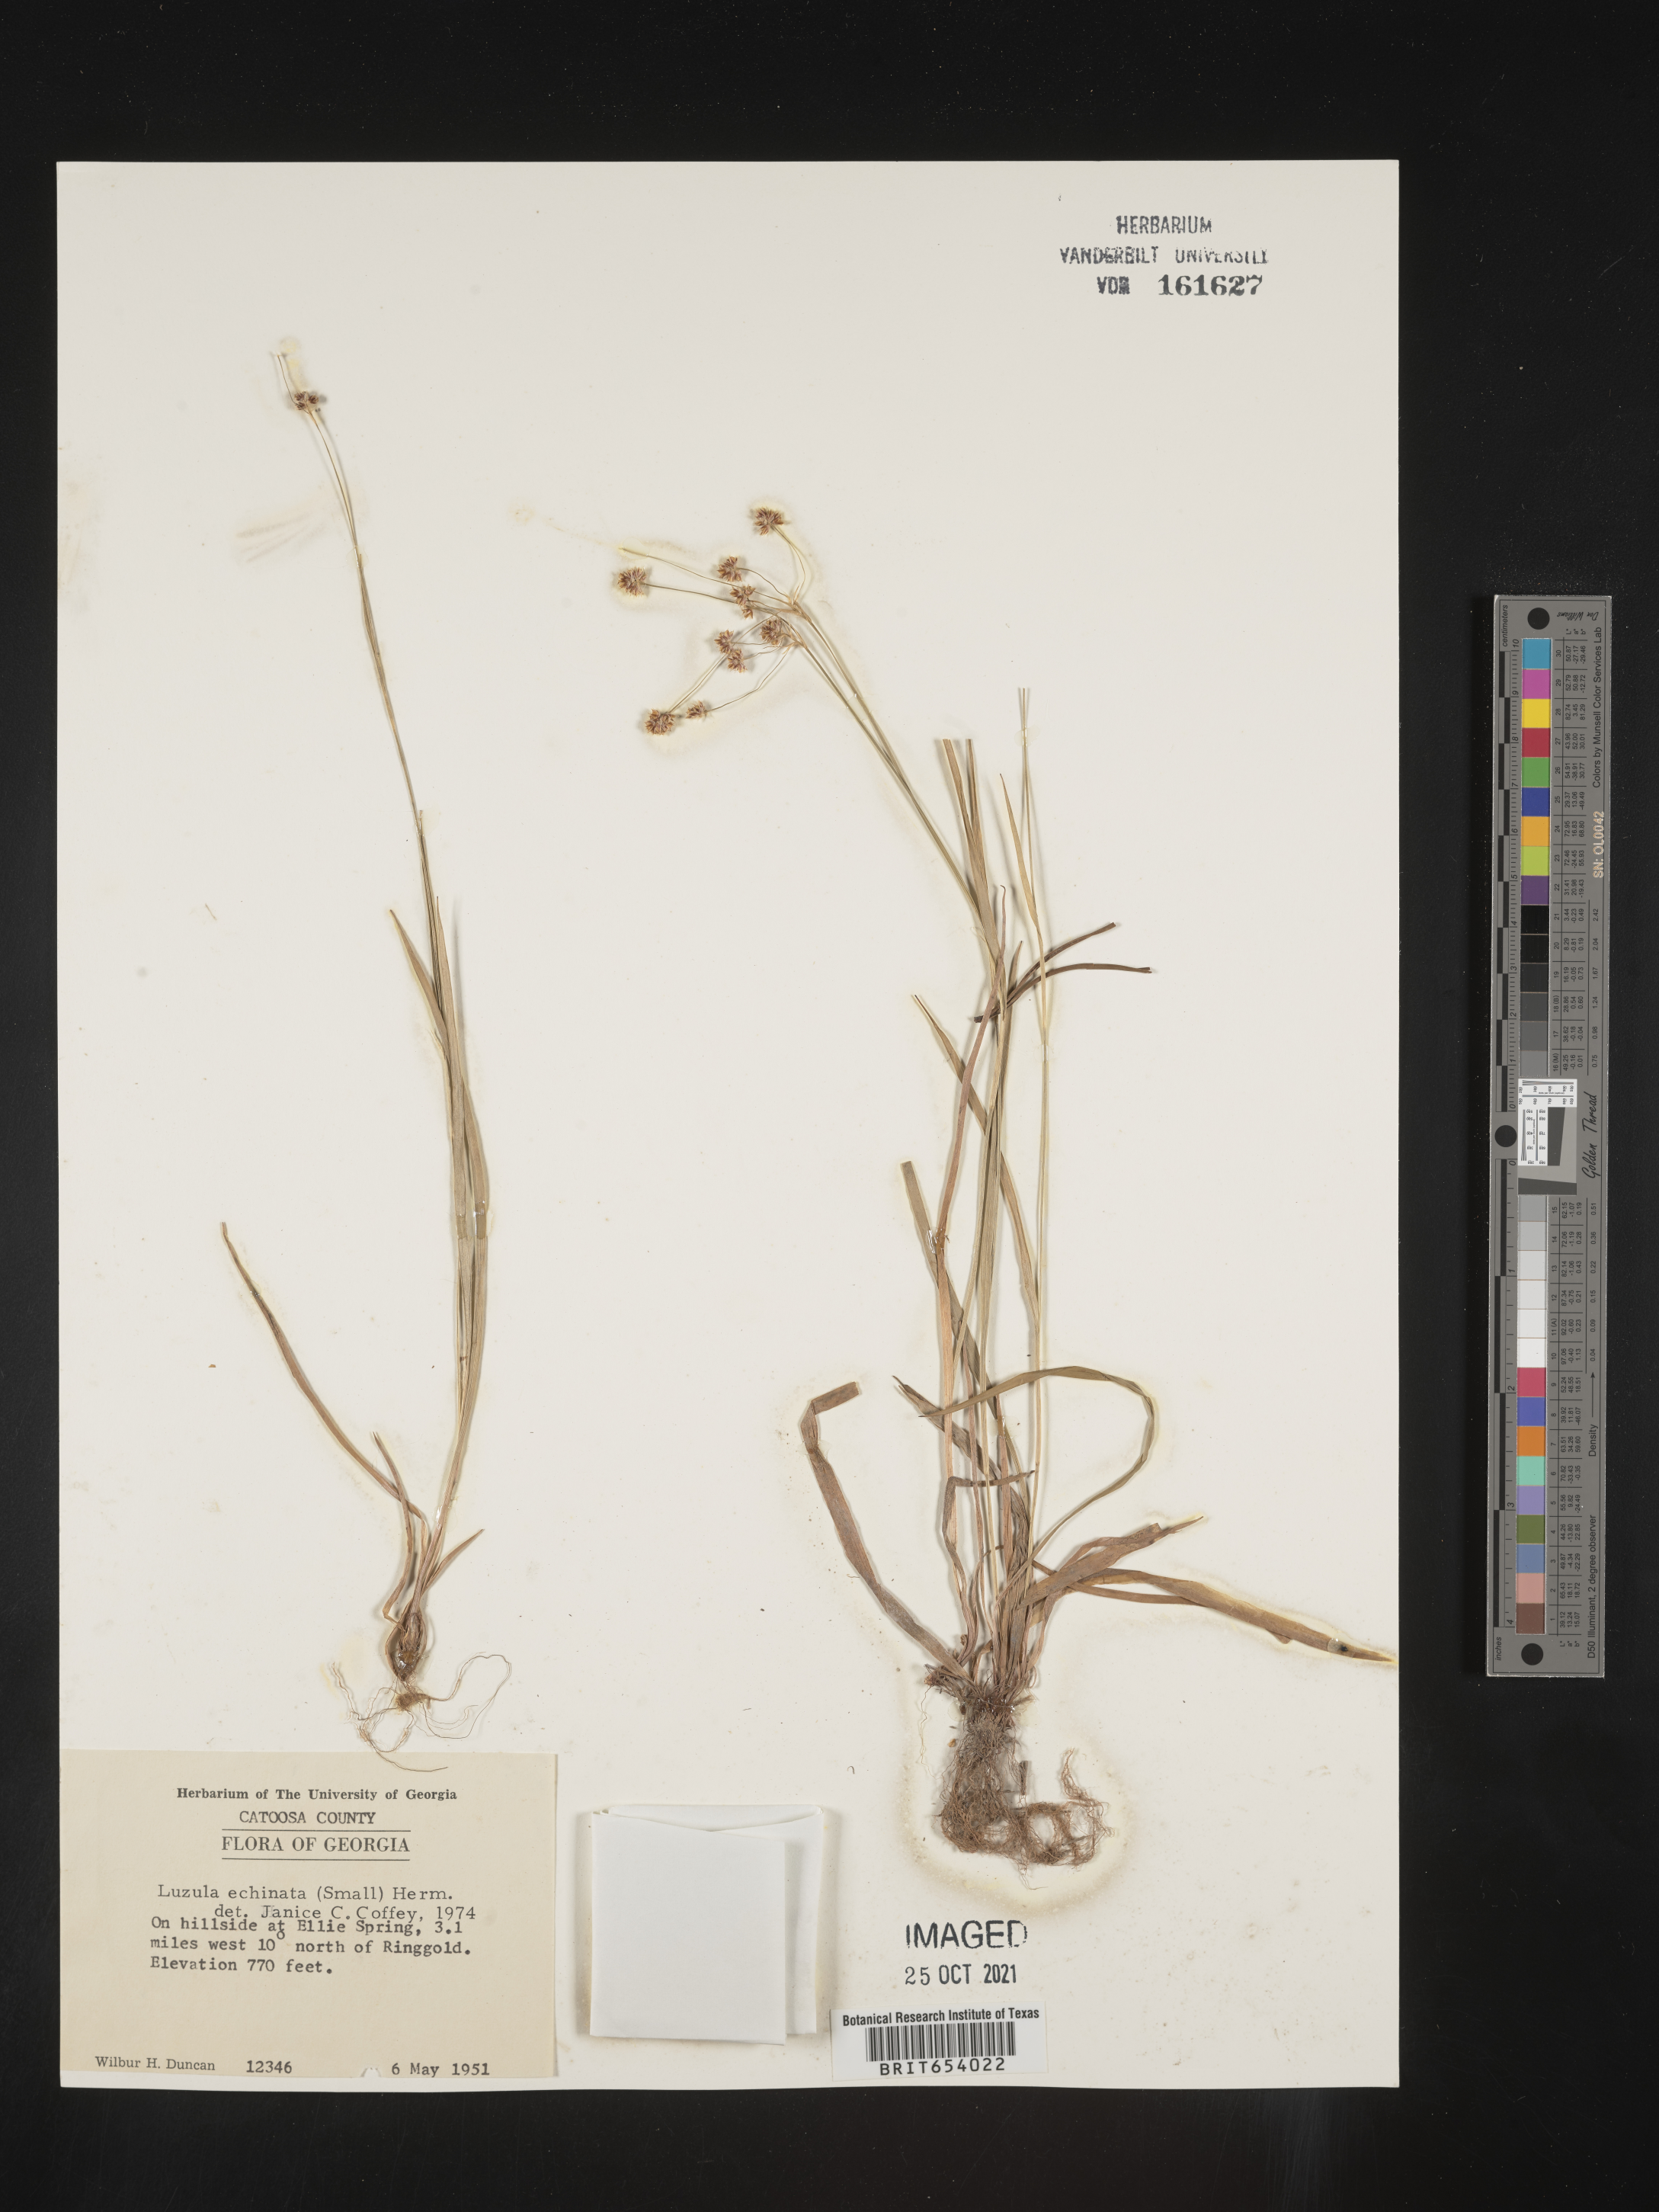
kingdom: Plantae
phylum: Tracheophyta
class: Liliopsida
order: Poales
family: Juncaceae
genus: Luzula
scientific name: Luzula echinata
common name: Hedgehog woodrush
